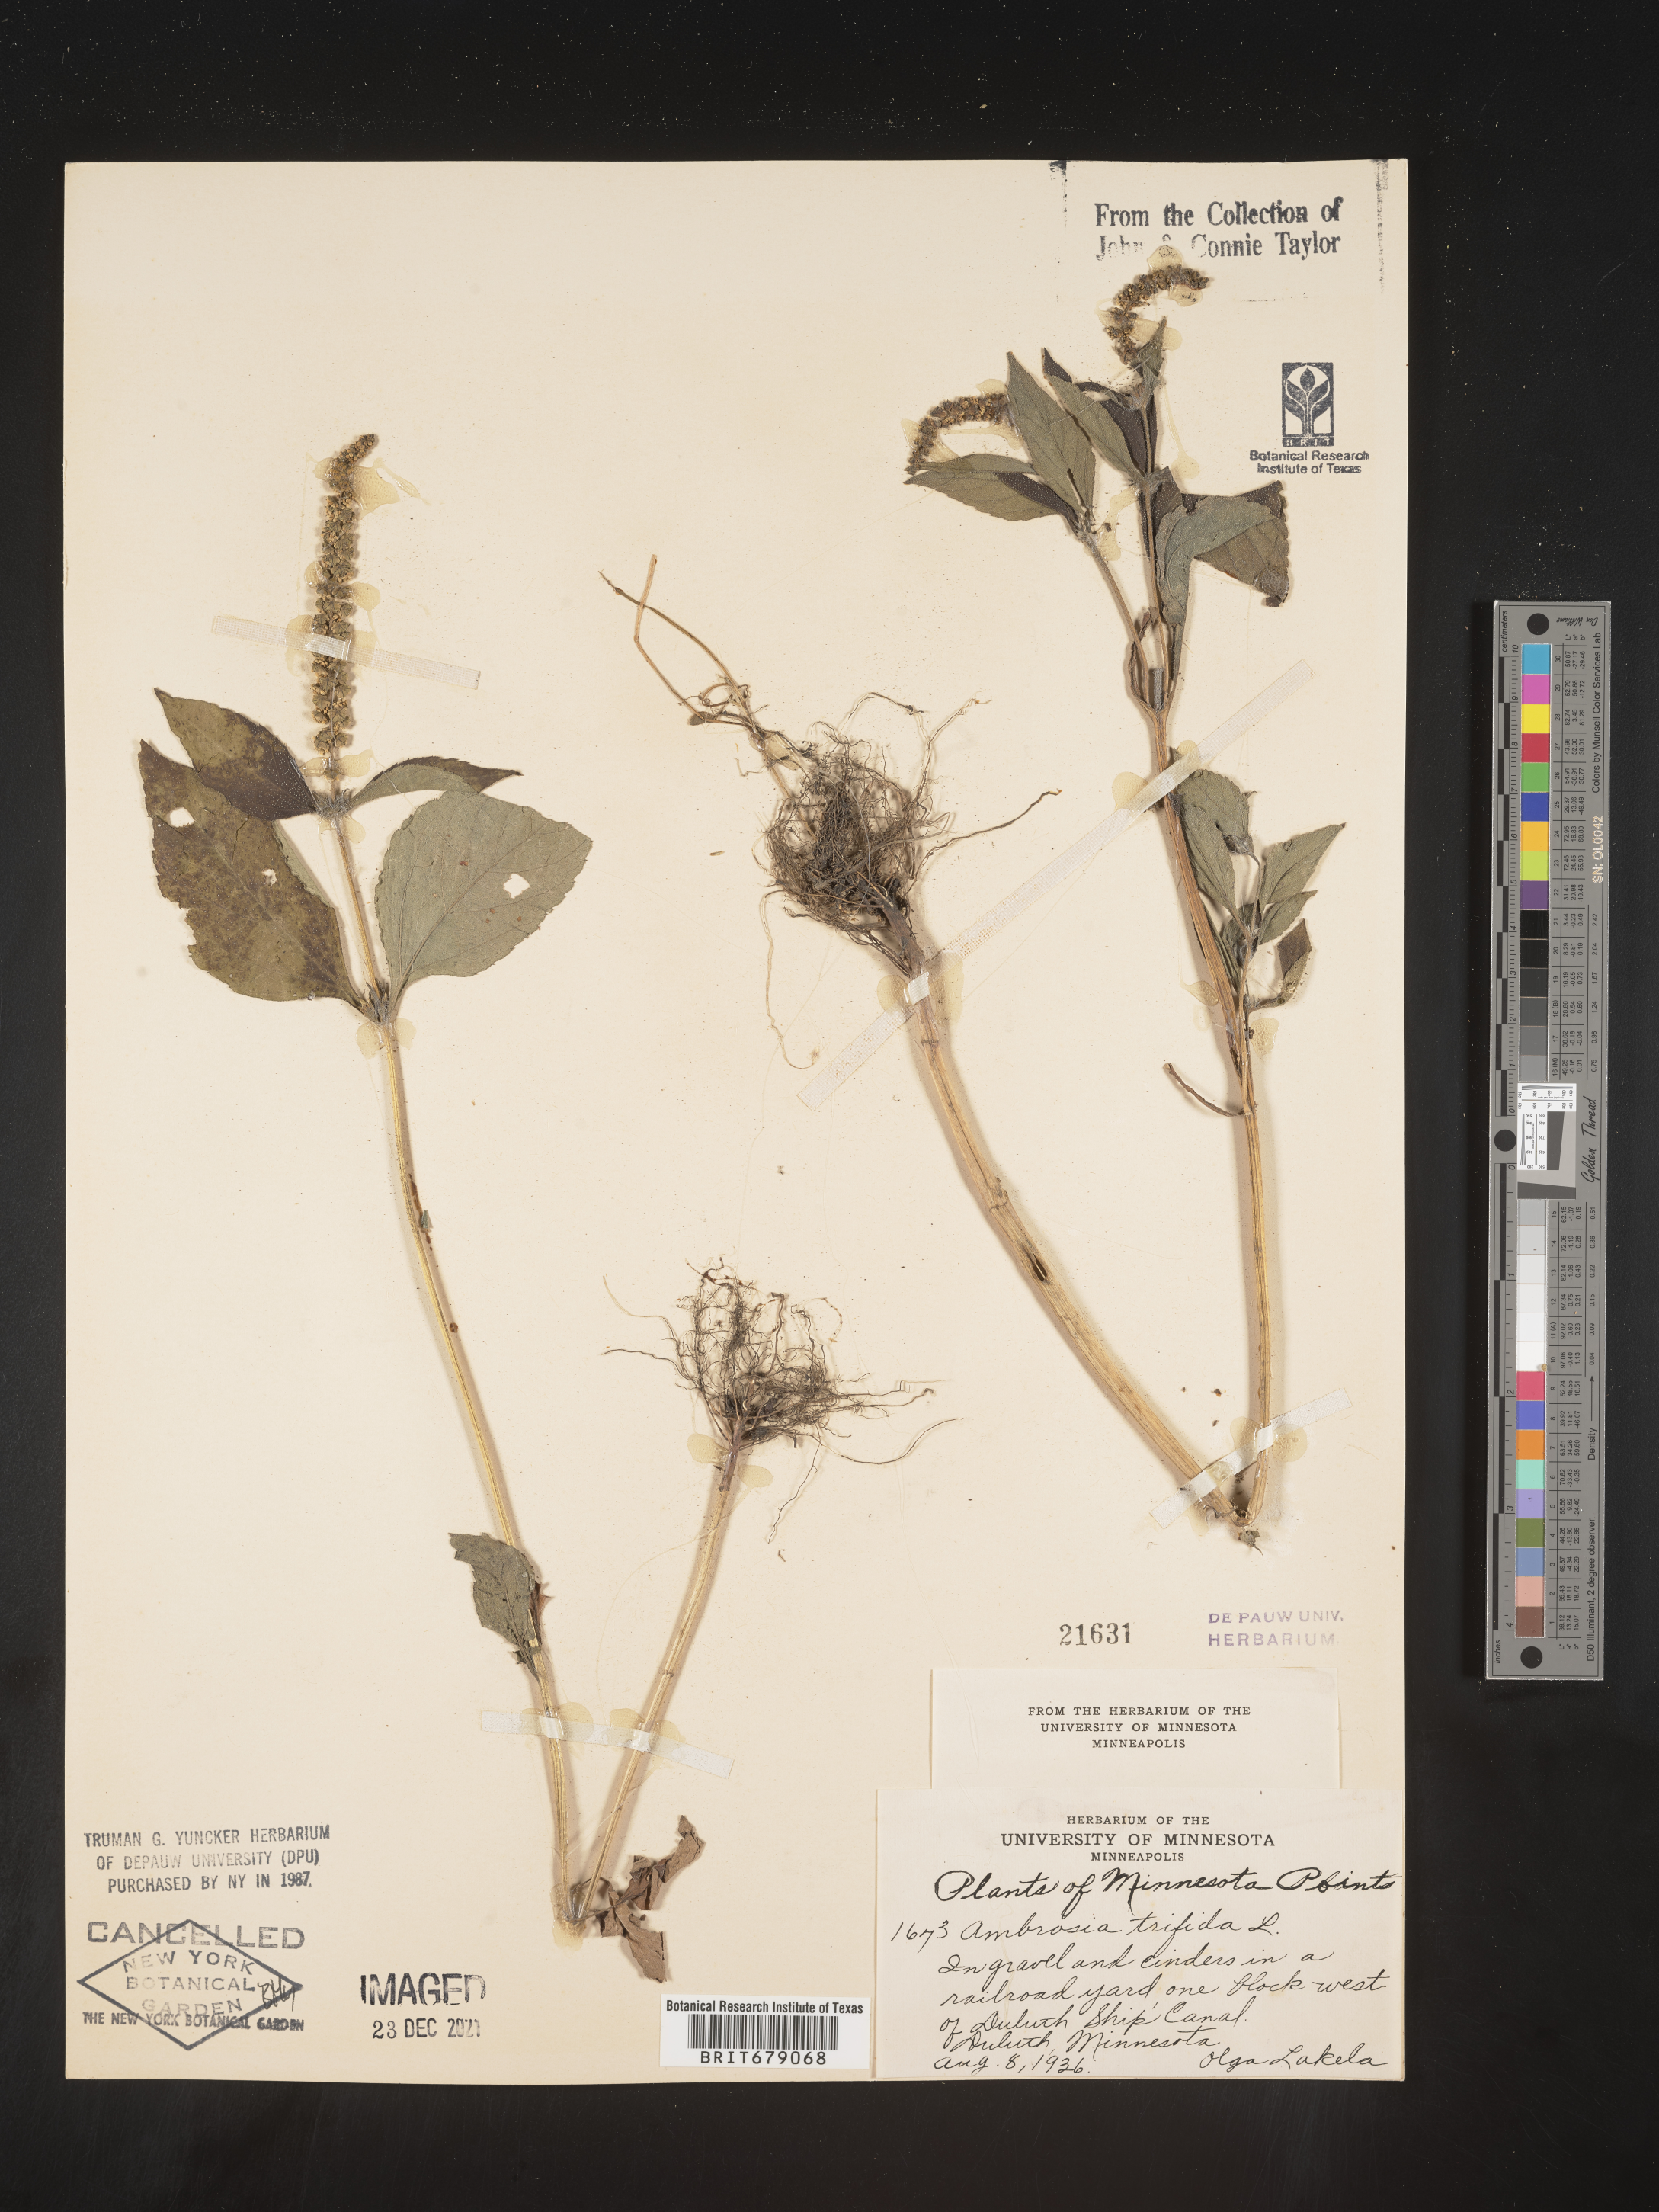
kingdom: Plantae
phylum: Tracheophyta
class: Magnoliopsida
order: Asterales
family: Asteraceae
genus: Ambrosia
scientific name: Ambrosia trifida
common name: Giant ragweed
